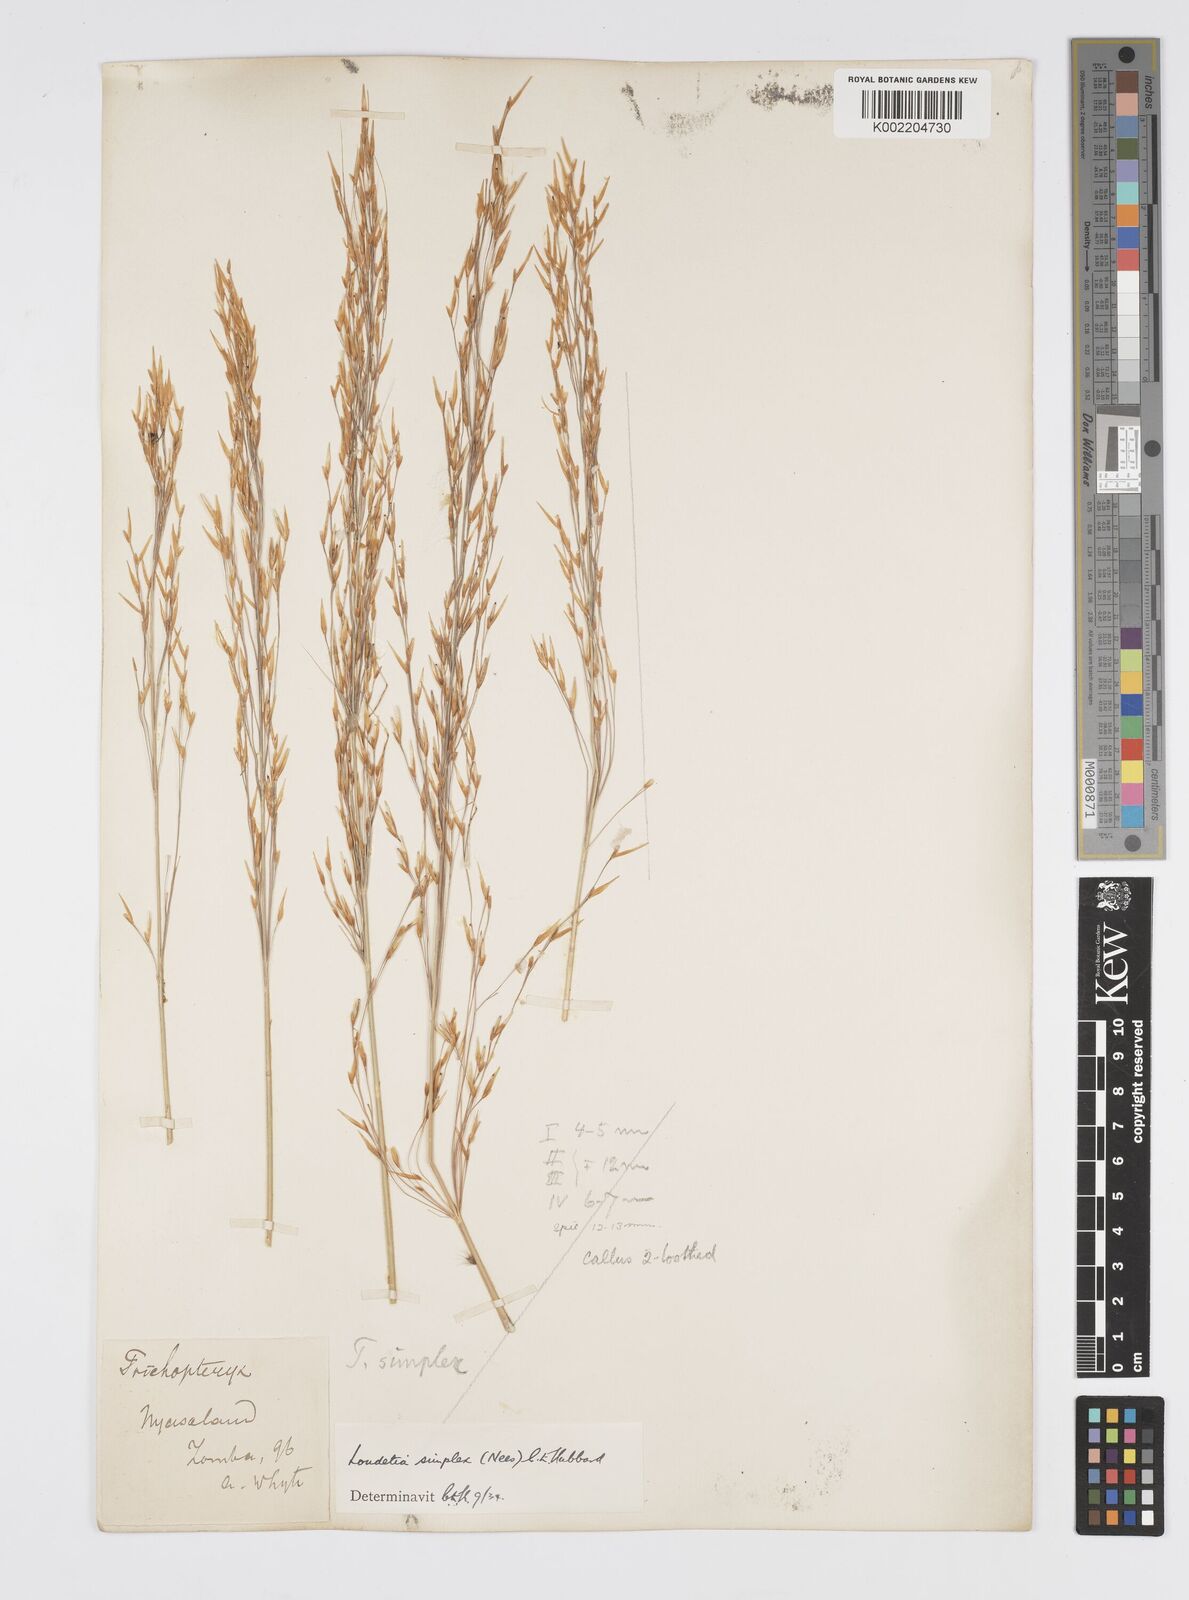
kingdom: Plantae
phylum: Tracheophyta
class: Liliopsida
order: Poales
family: Poaceae
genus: Loudetia
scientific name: Loudetia simplex
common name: Common russet grass
